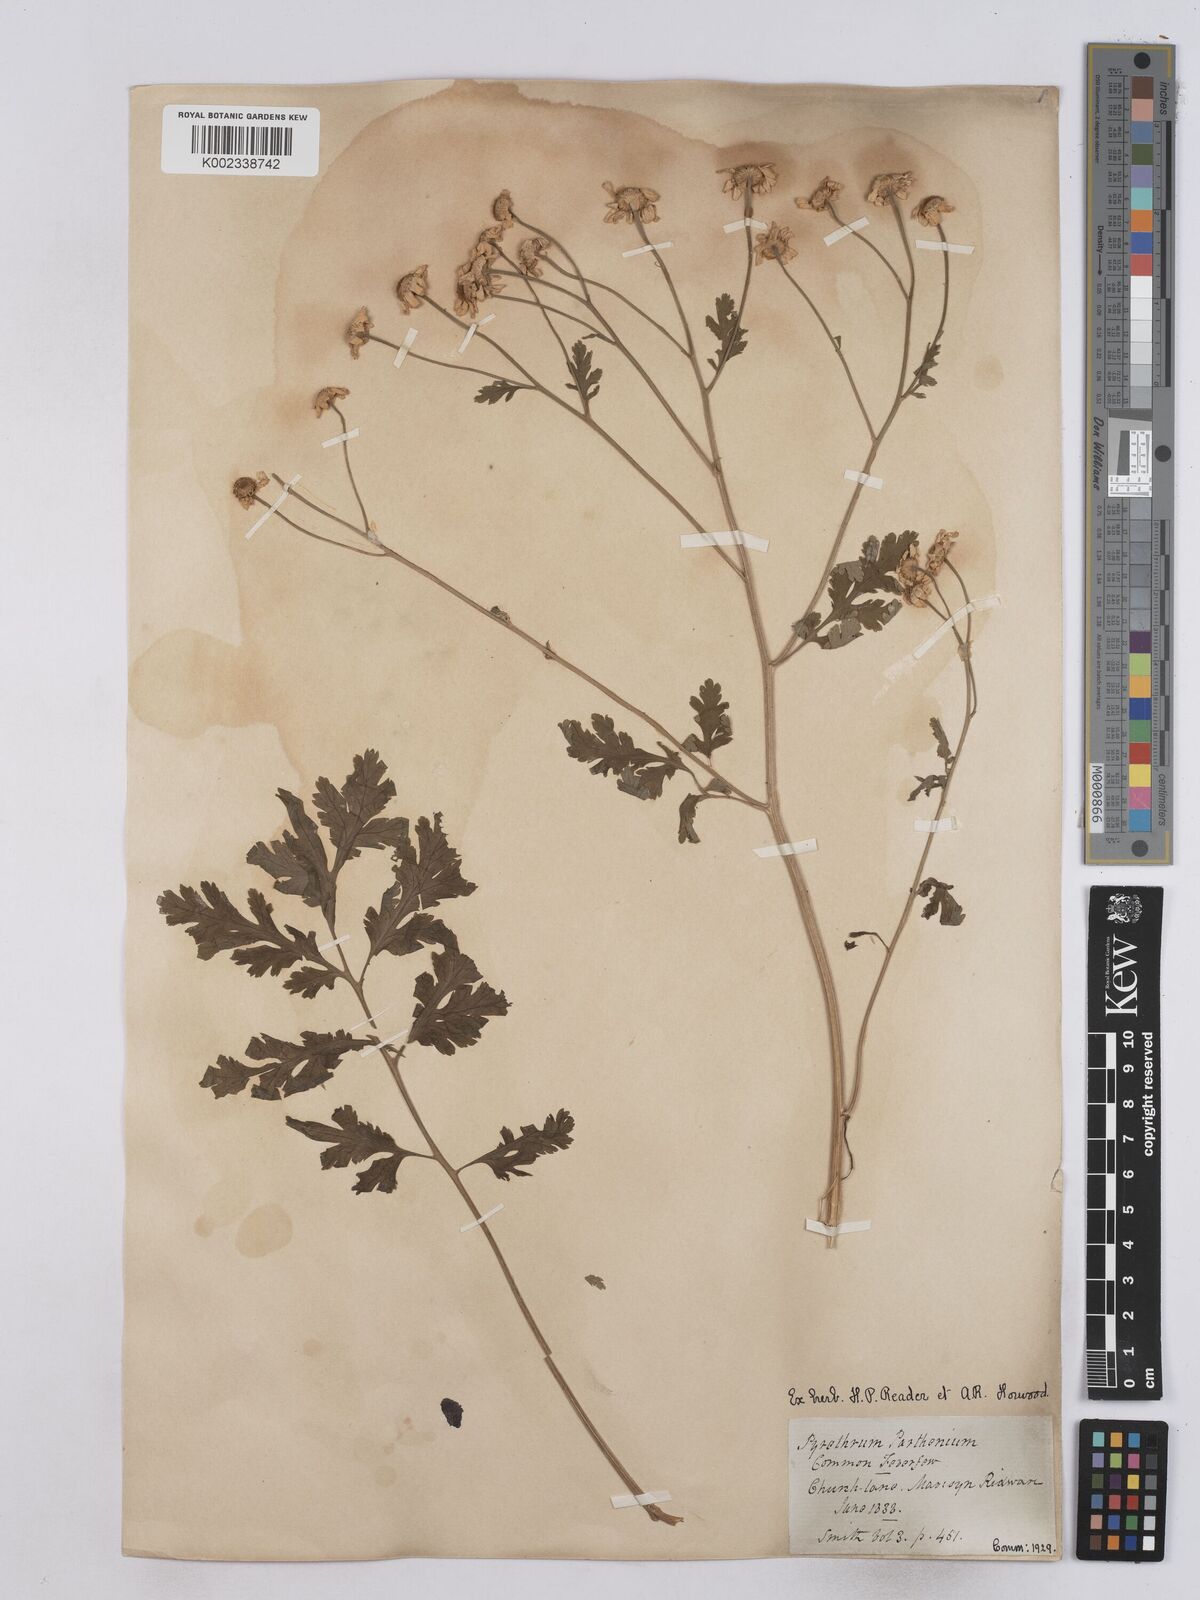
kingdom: Plantae
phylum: Tracheophyta
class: Magnoliopsida
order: Asterales
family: Asteraceae
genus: Tanacetum
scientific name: Tanacetum parthenium
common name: Feverfew
